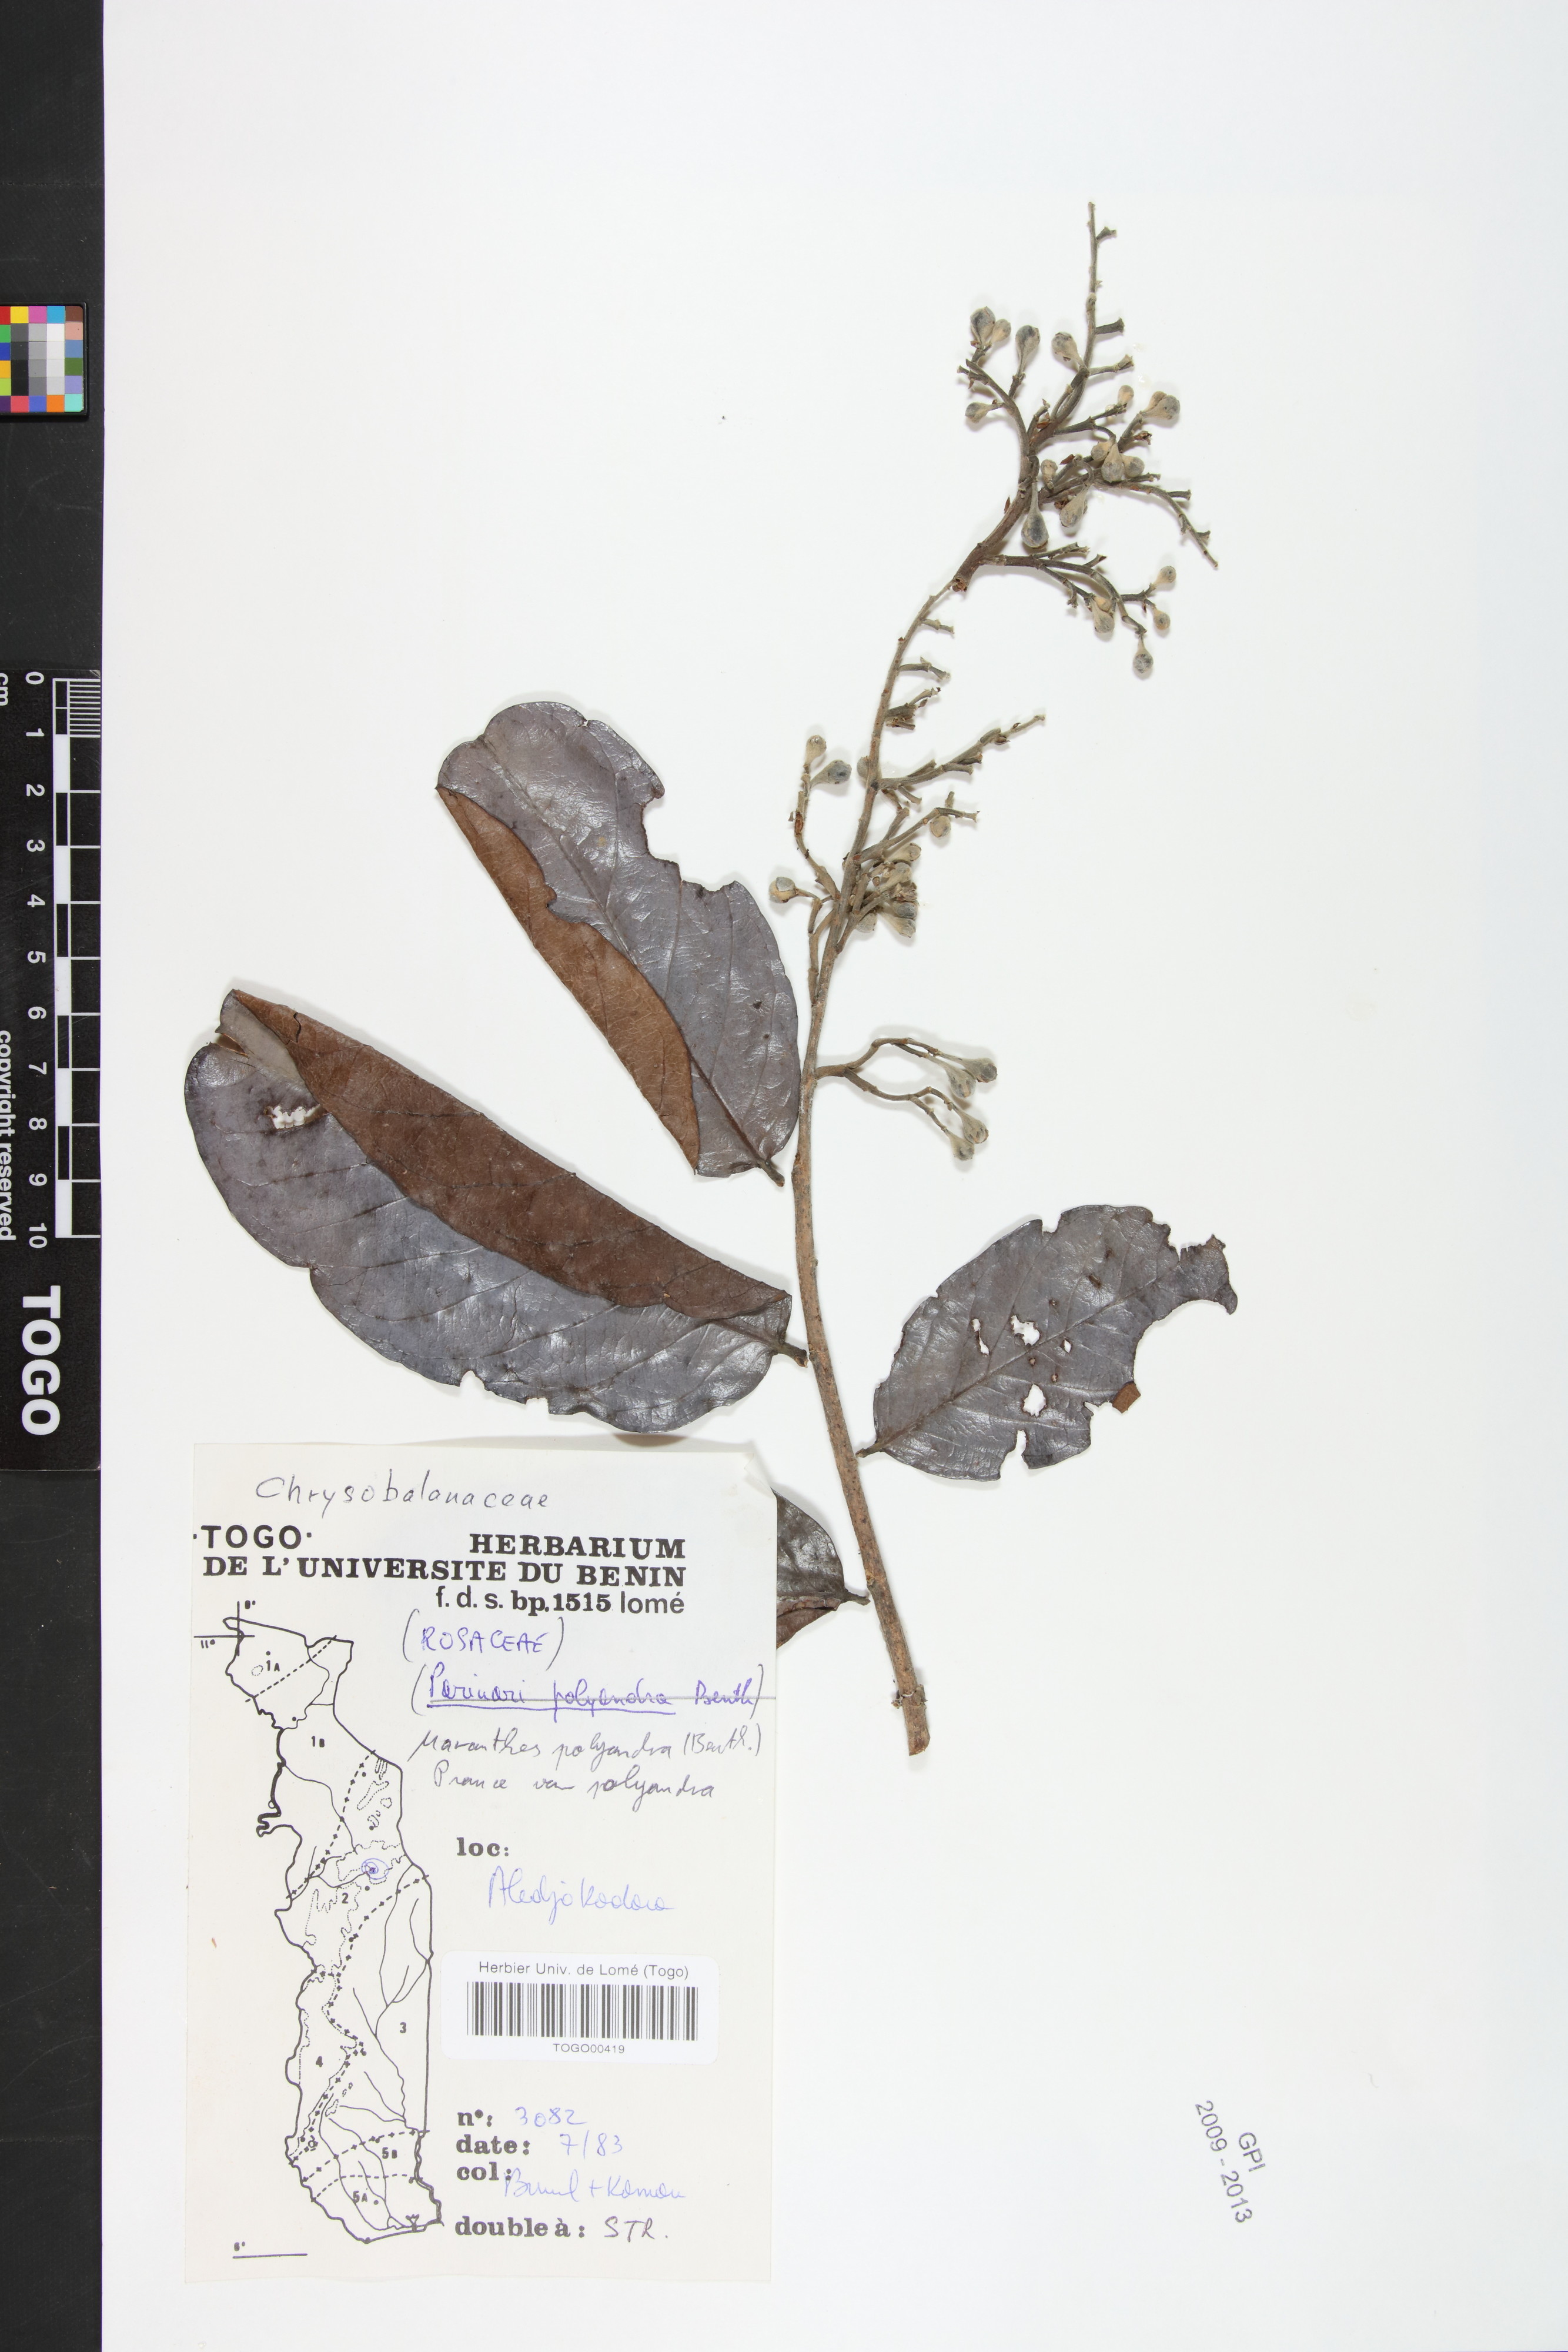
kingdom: Plantae
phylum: Tracheophyta
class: Magnoliopsida
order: Malpighiales
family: Chrysobalanaceae
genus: Maranthes
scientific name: Maranthes polyandra
